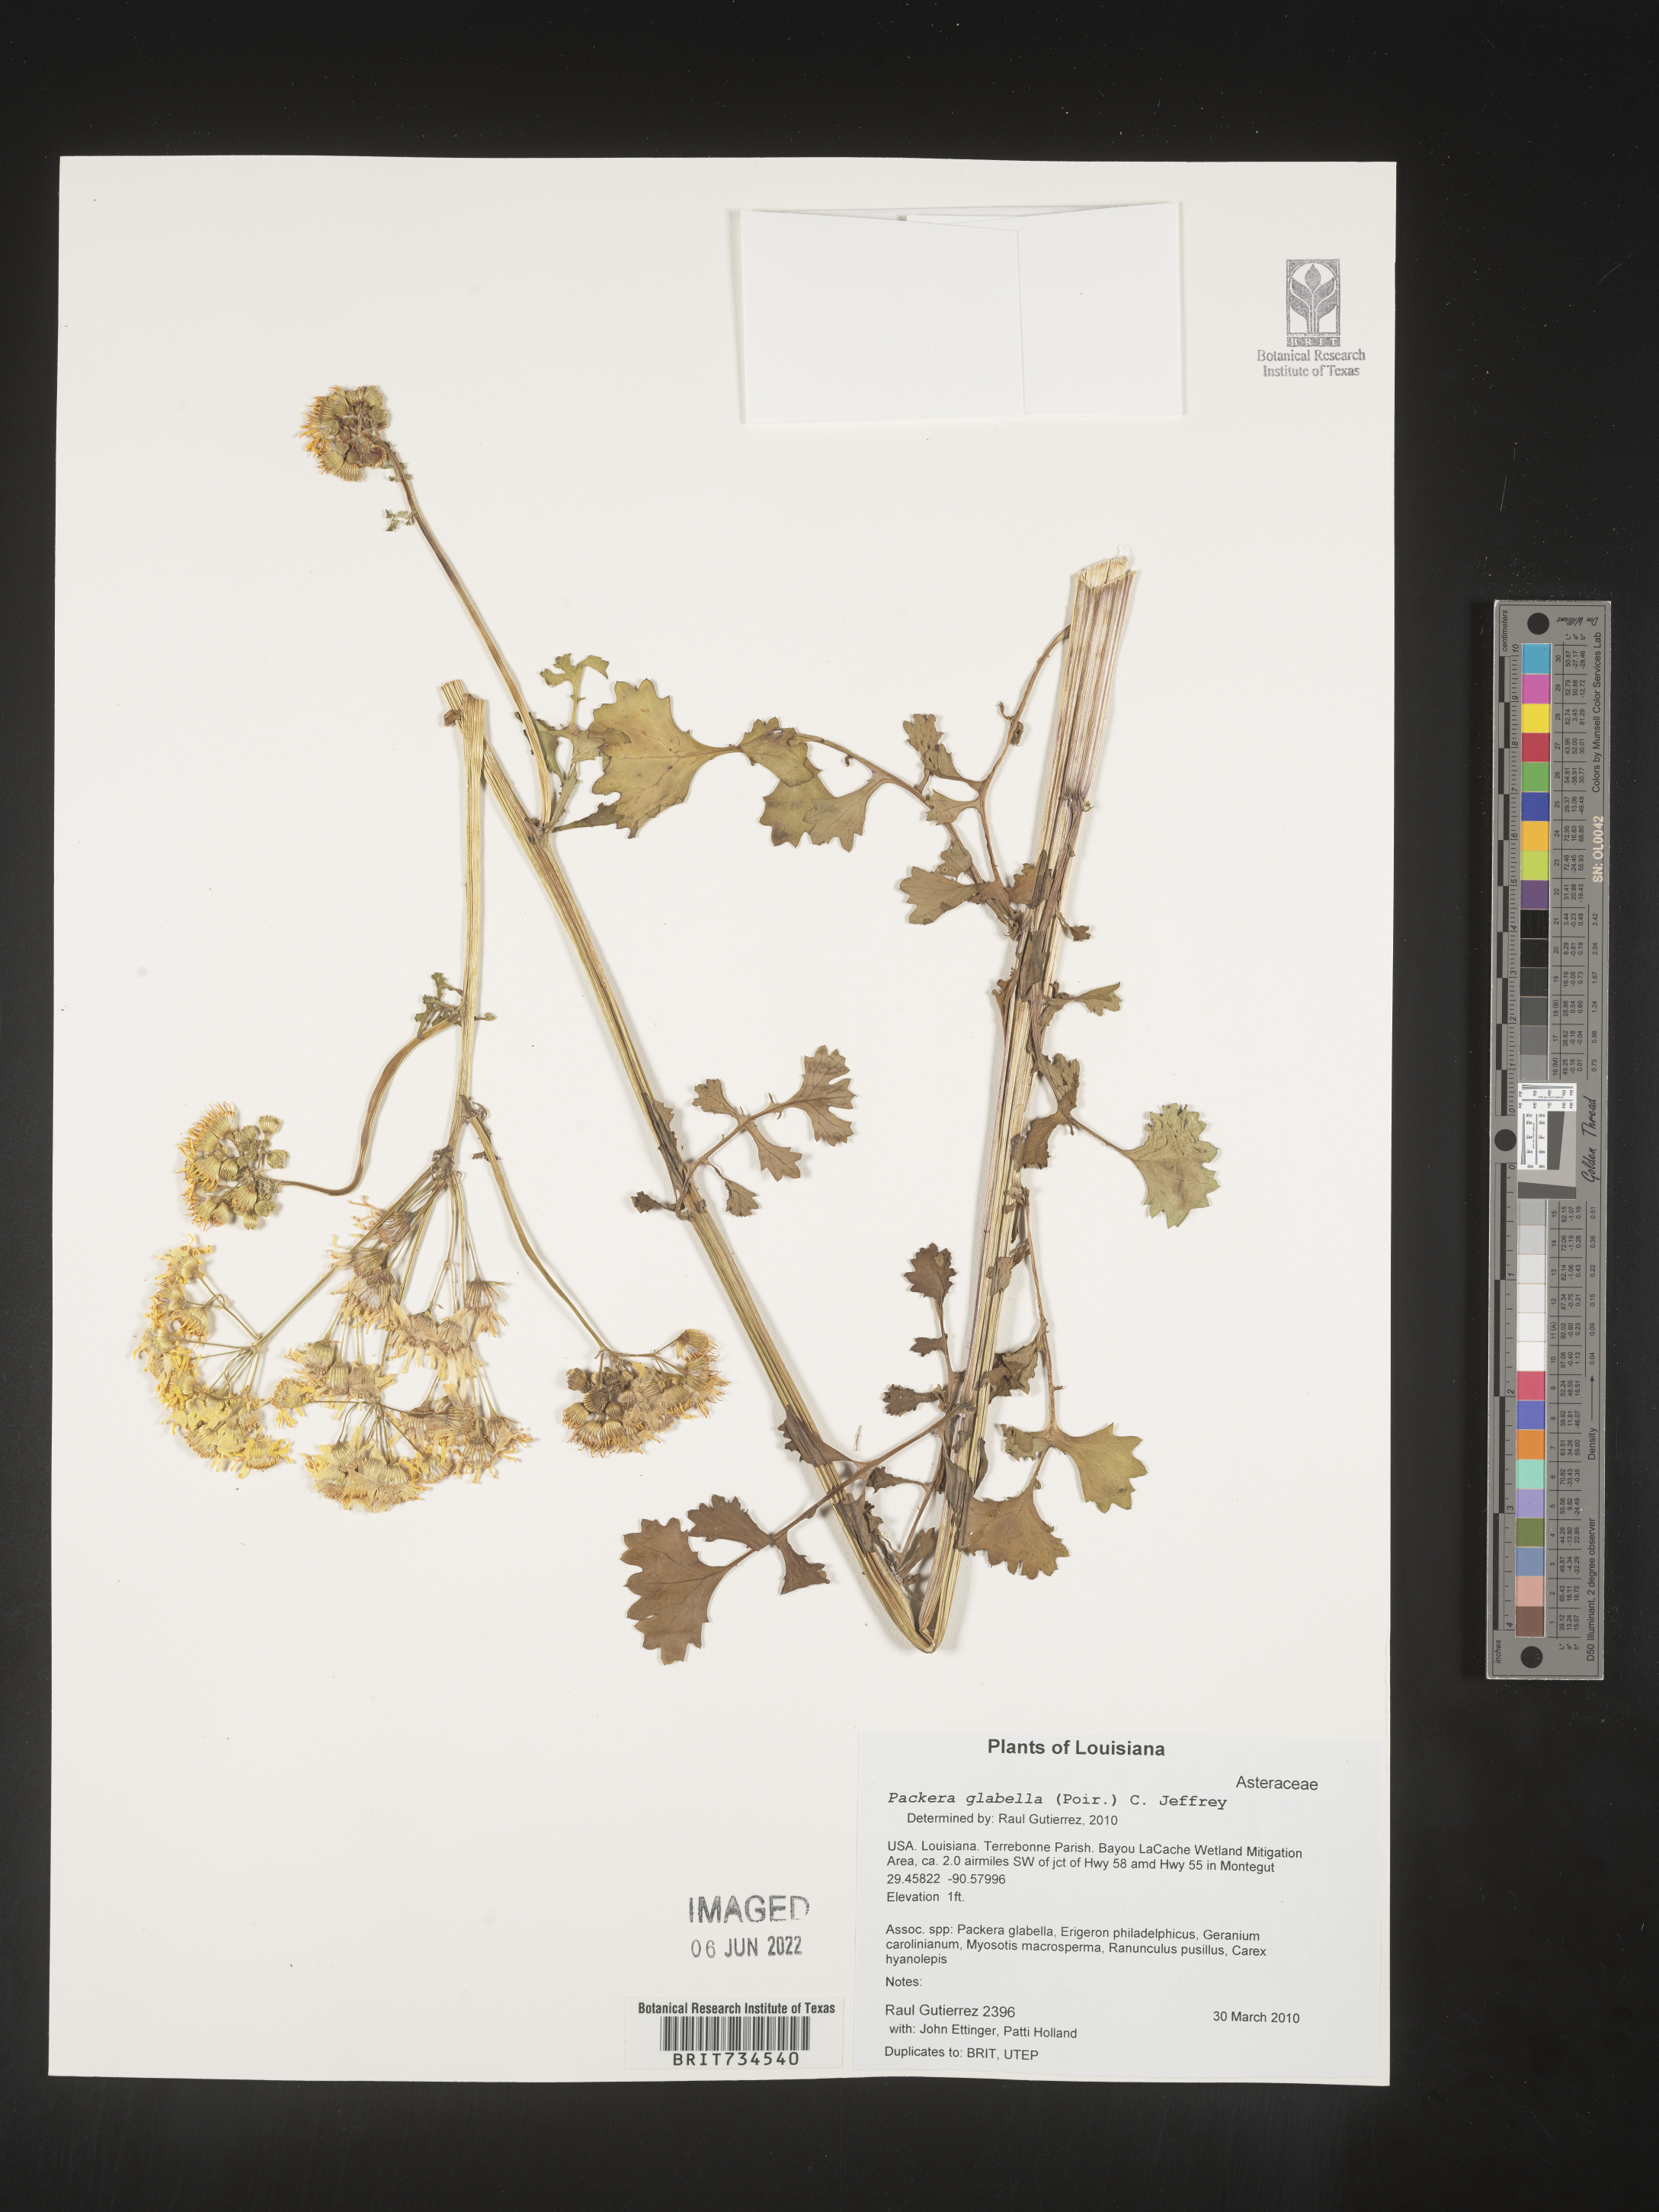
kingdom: Plantae
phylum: Tracheophyta
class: Magnoliopsida
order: Asterales
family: Asteraceae
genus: Packera
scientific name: Packera glabella
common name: Butterweed
